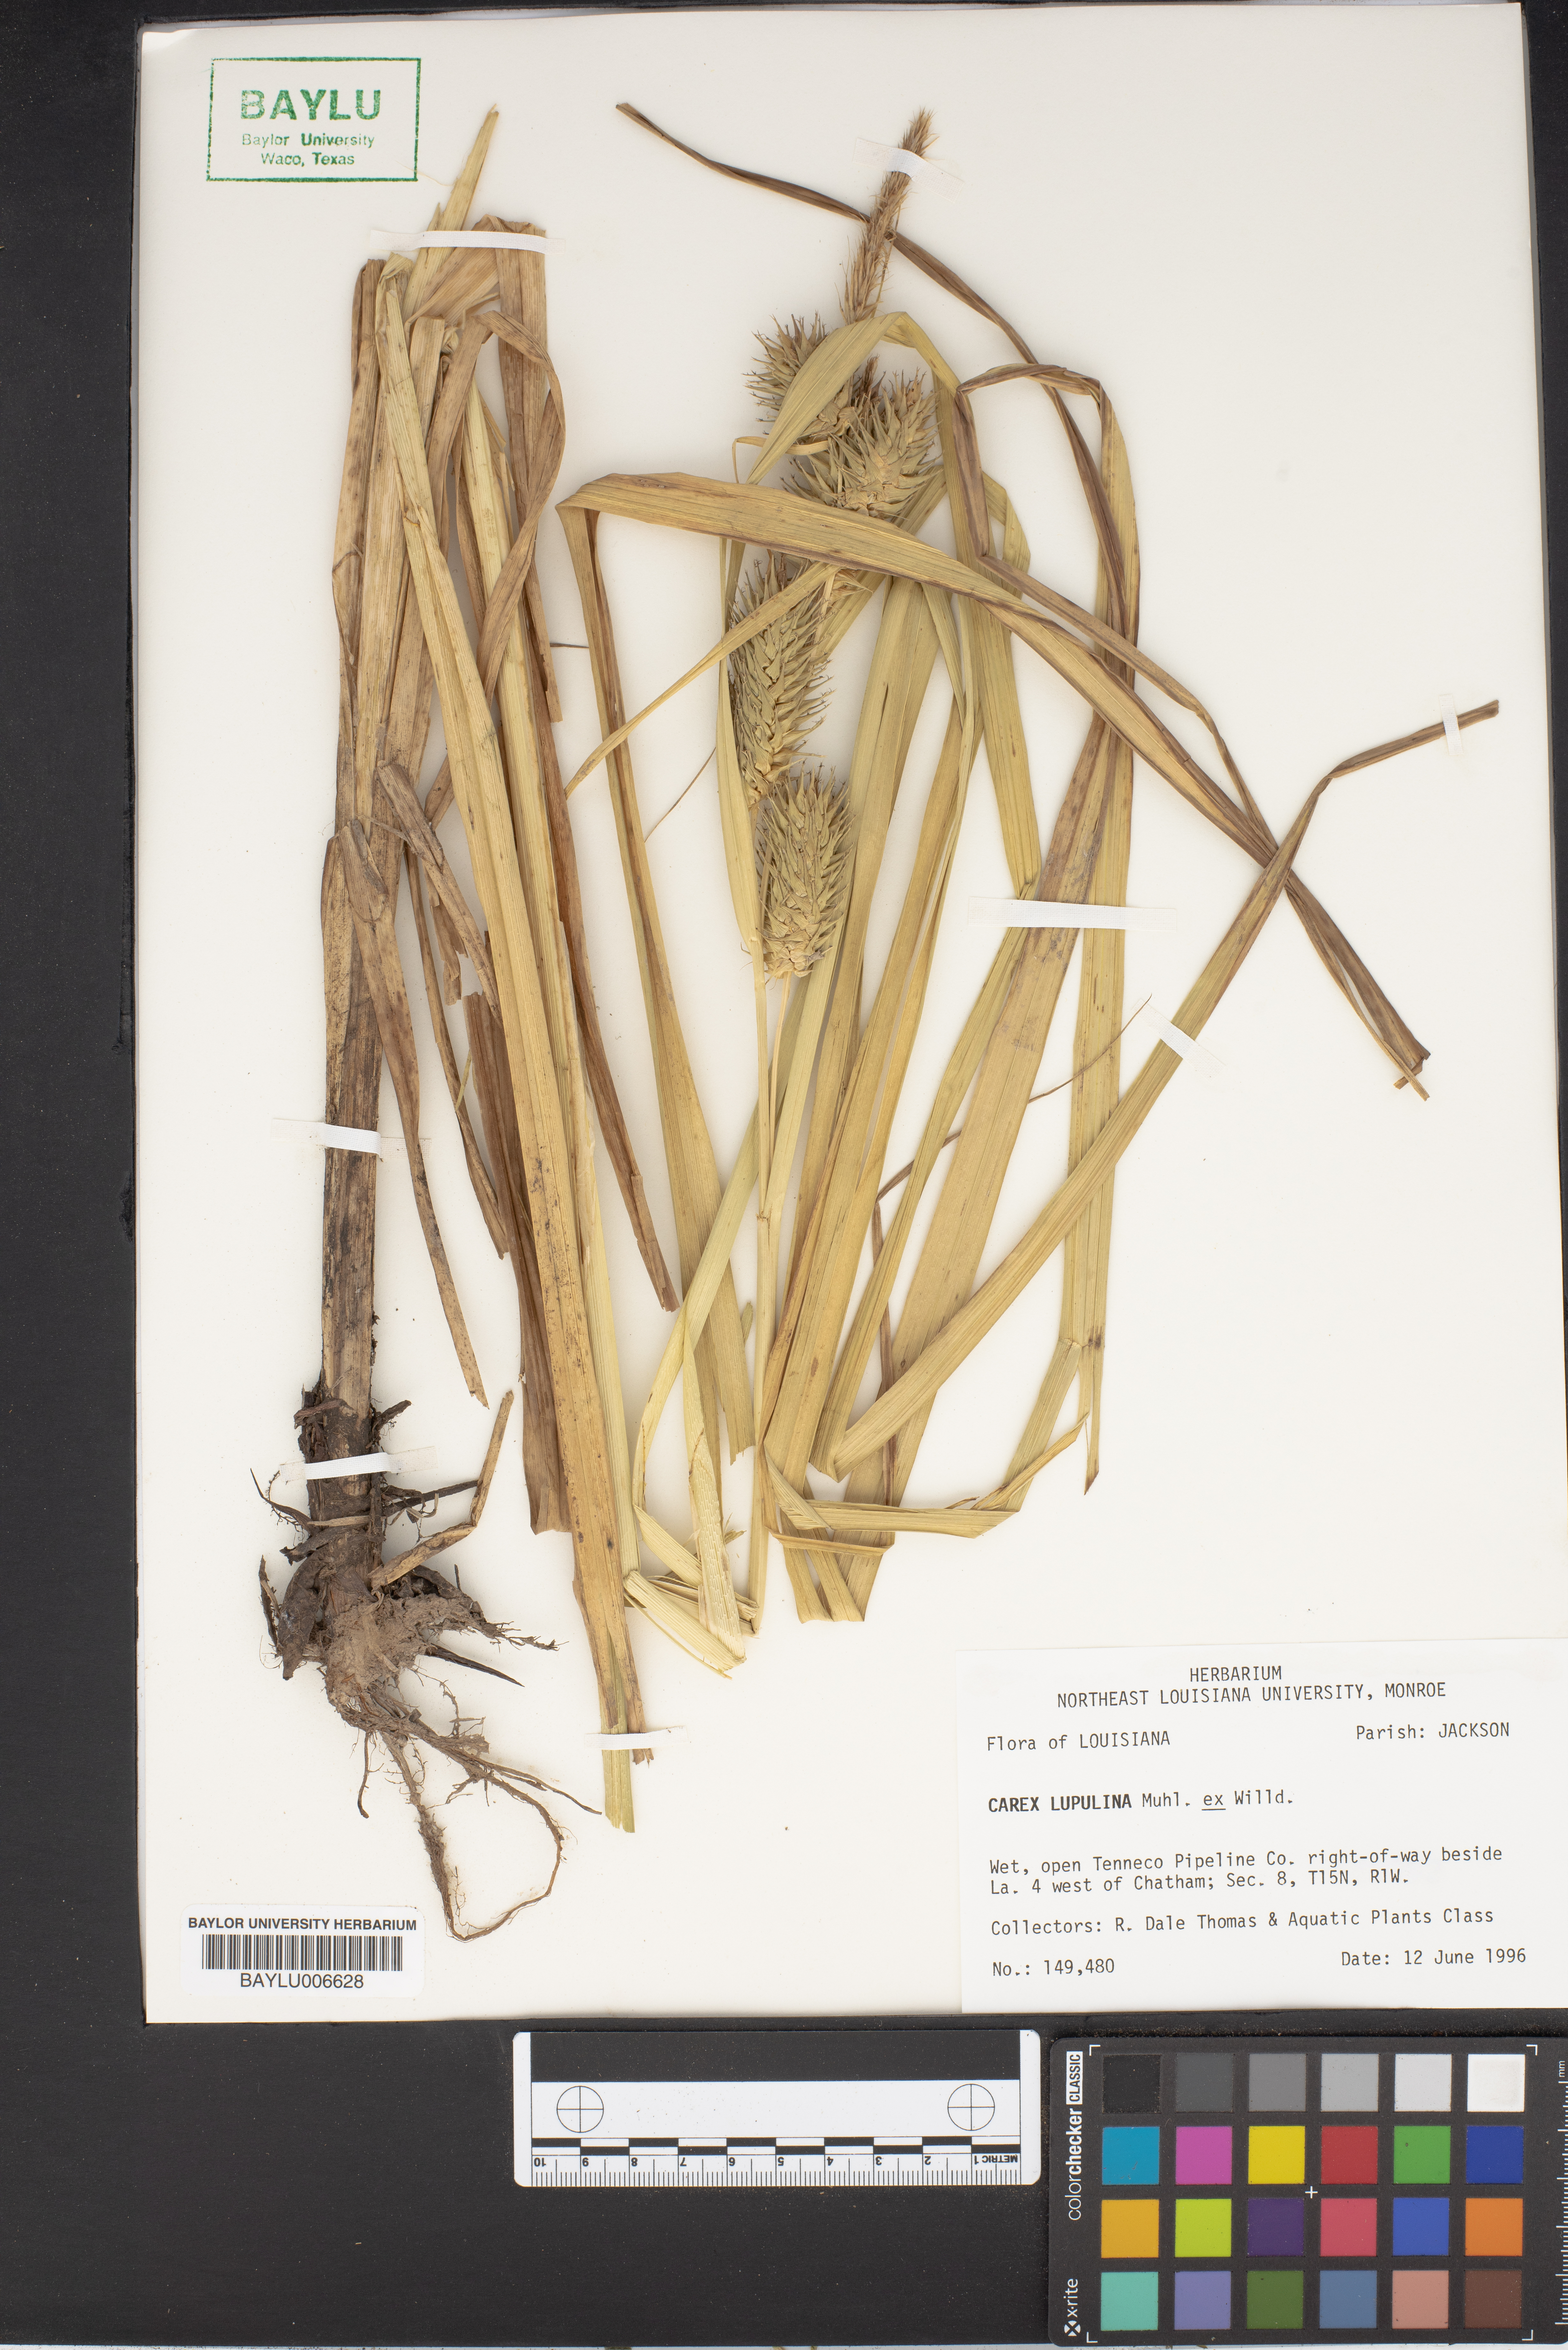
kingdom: Plantae
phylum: Tracheophyta
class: Liliopsida
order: Poales
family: Cyperaceae
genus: Carex
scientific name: Carex lupulina
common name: Hop sedge
